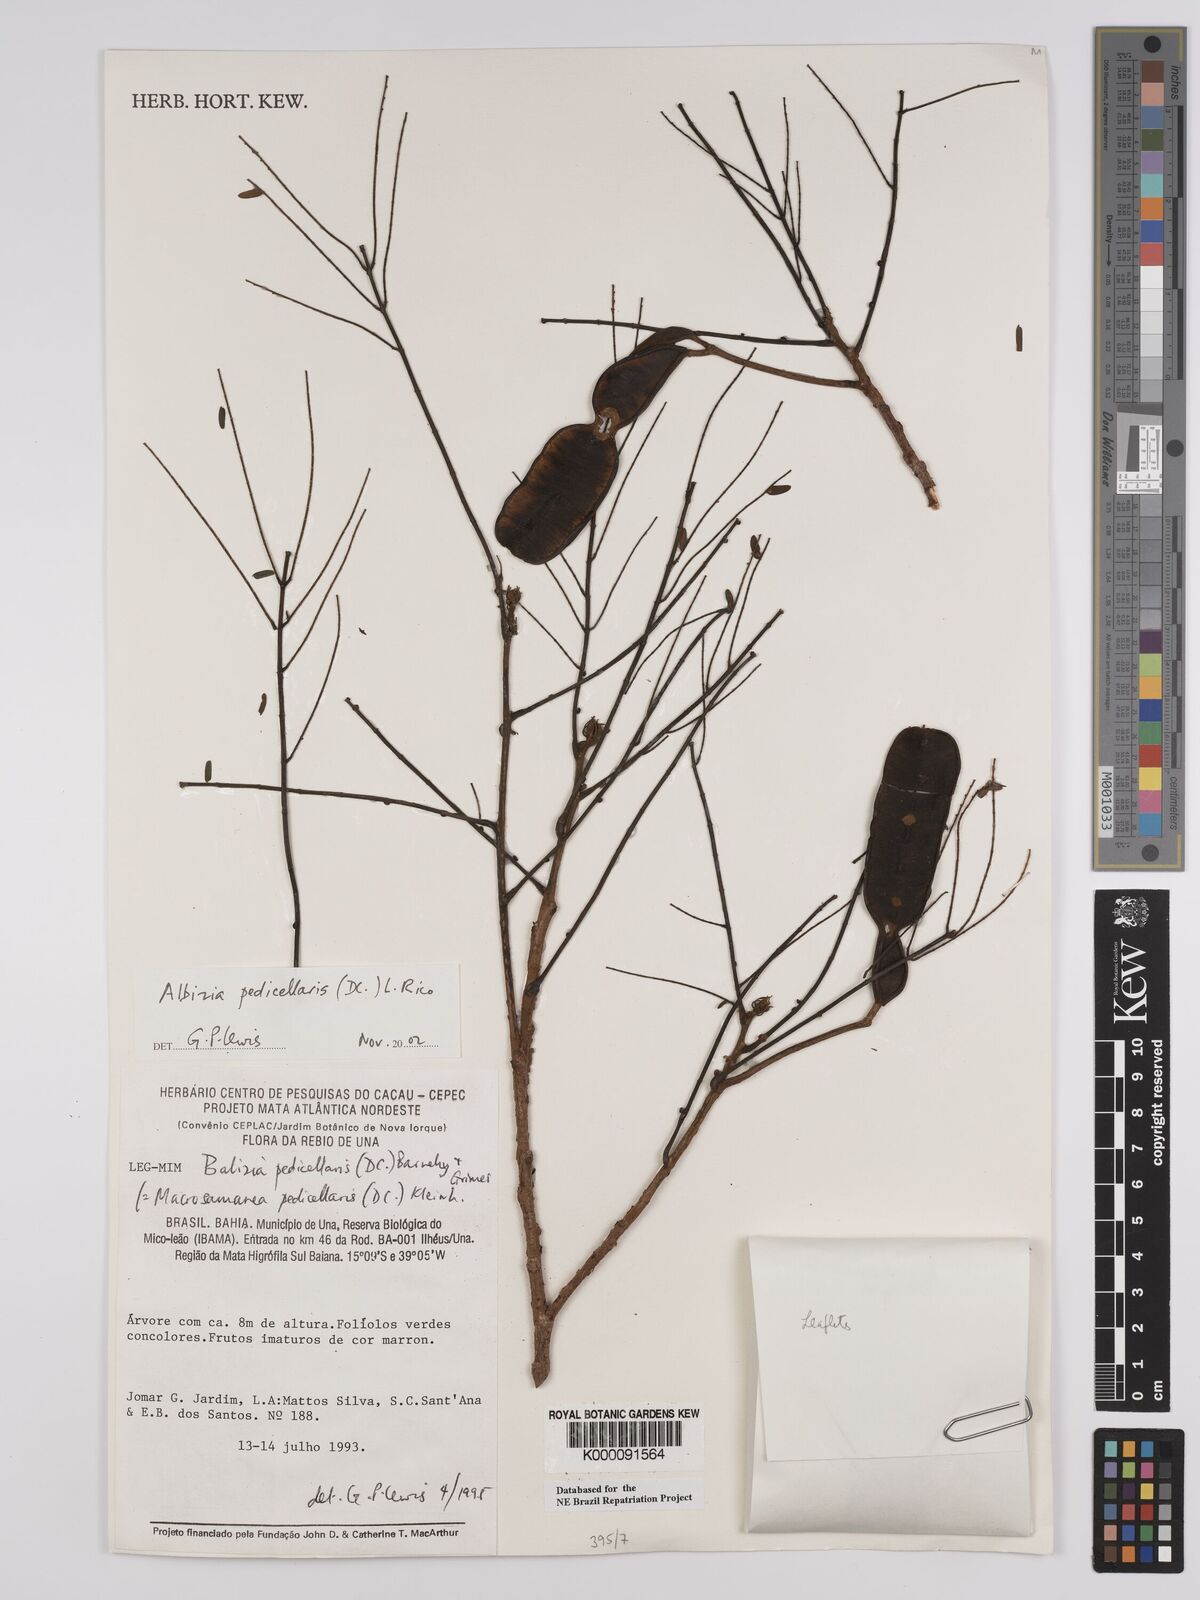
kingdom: Plantae
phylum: Tracheophyta
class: Magnoliopsida
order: Fabales
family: Fabaceae
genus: Balizia
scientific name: Balizia pedicellaris
